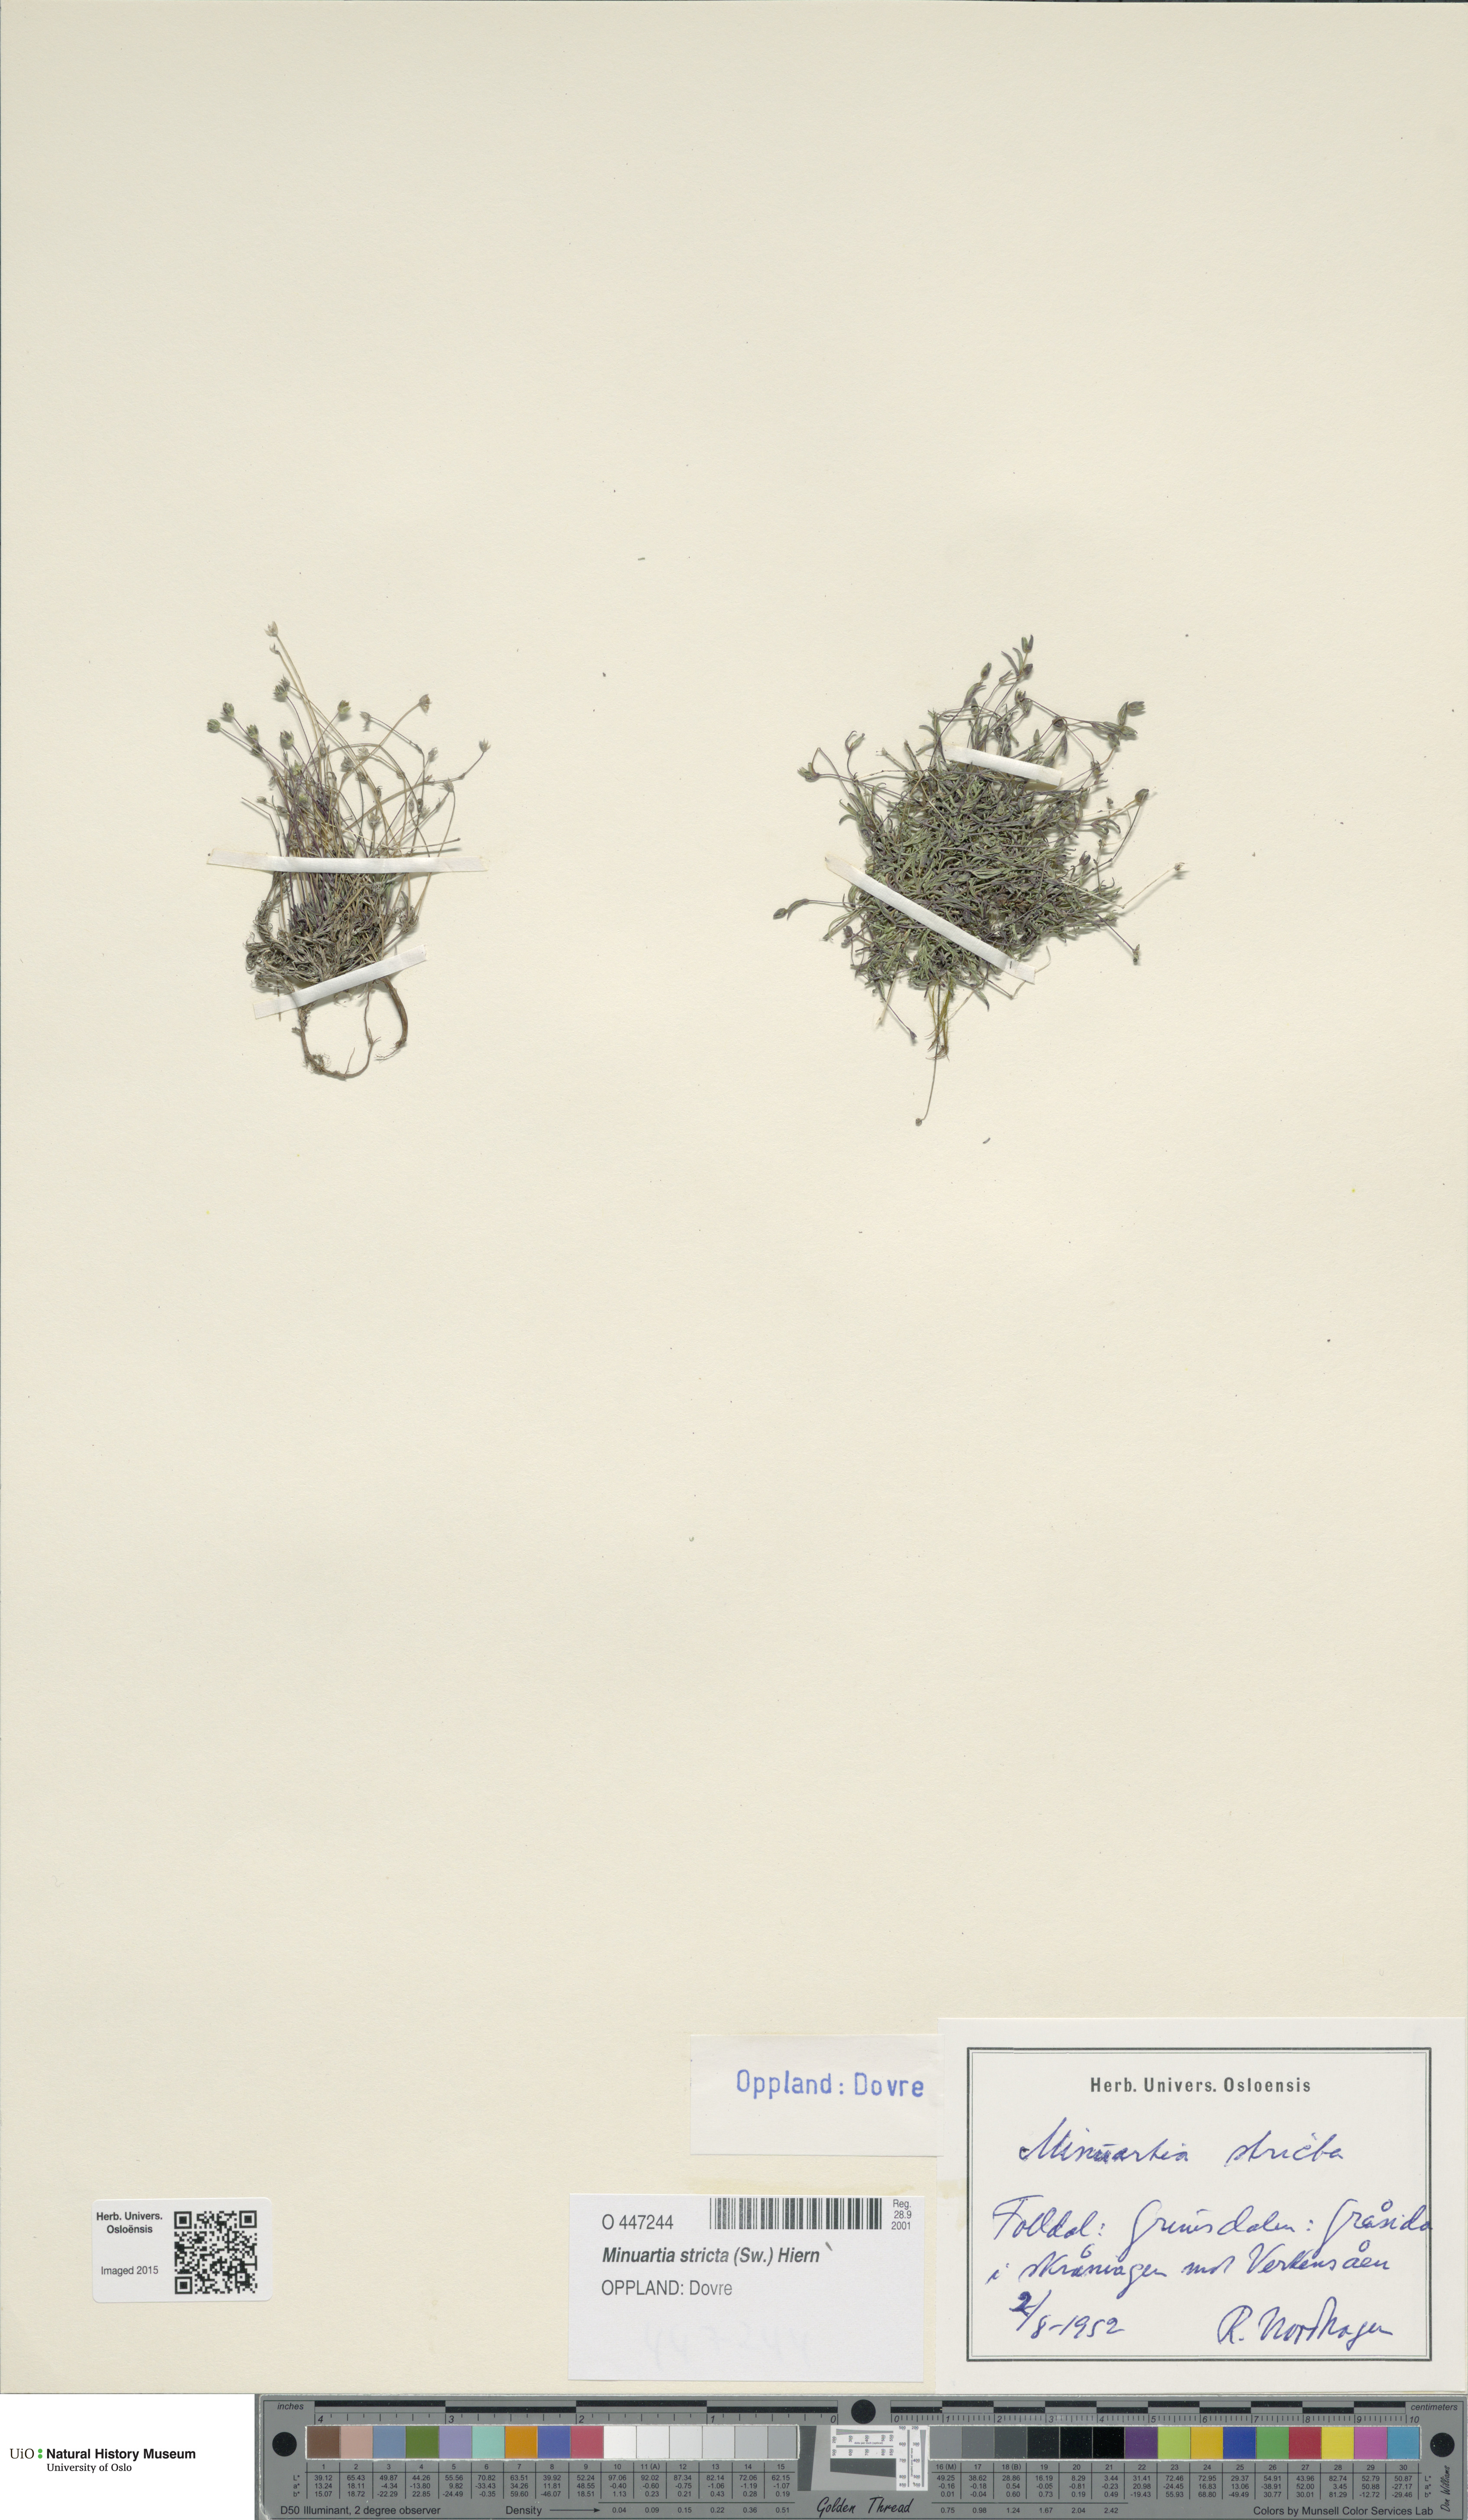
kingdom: Plantae
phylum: Tracheophyta
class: Magnoliopsida
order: Caryophyllales
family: Caryophyllaceae
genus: Sabulina
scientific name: Sabulina stricta
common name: Bog sandwort
